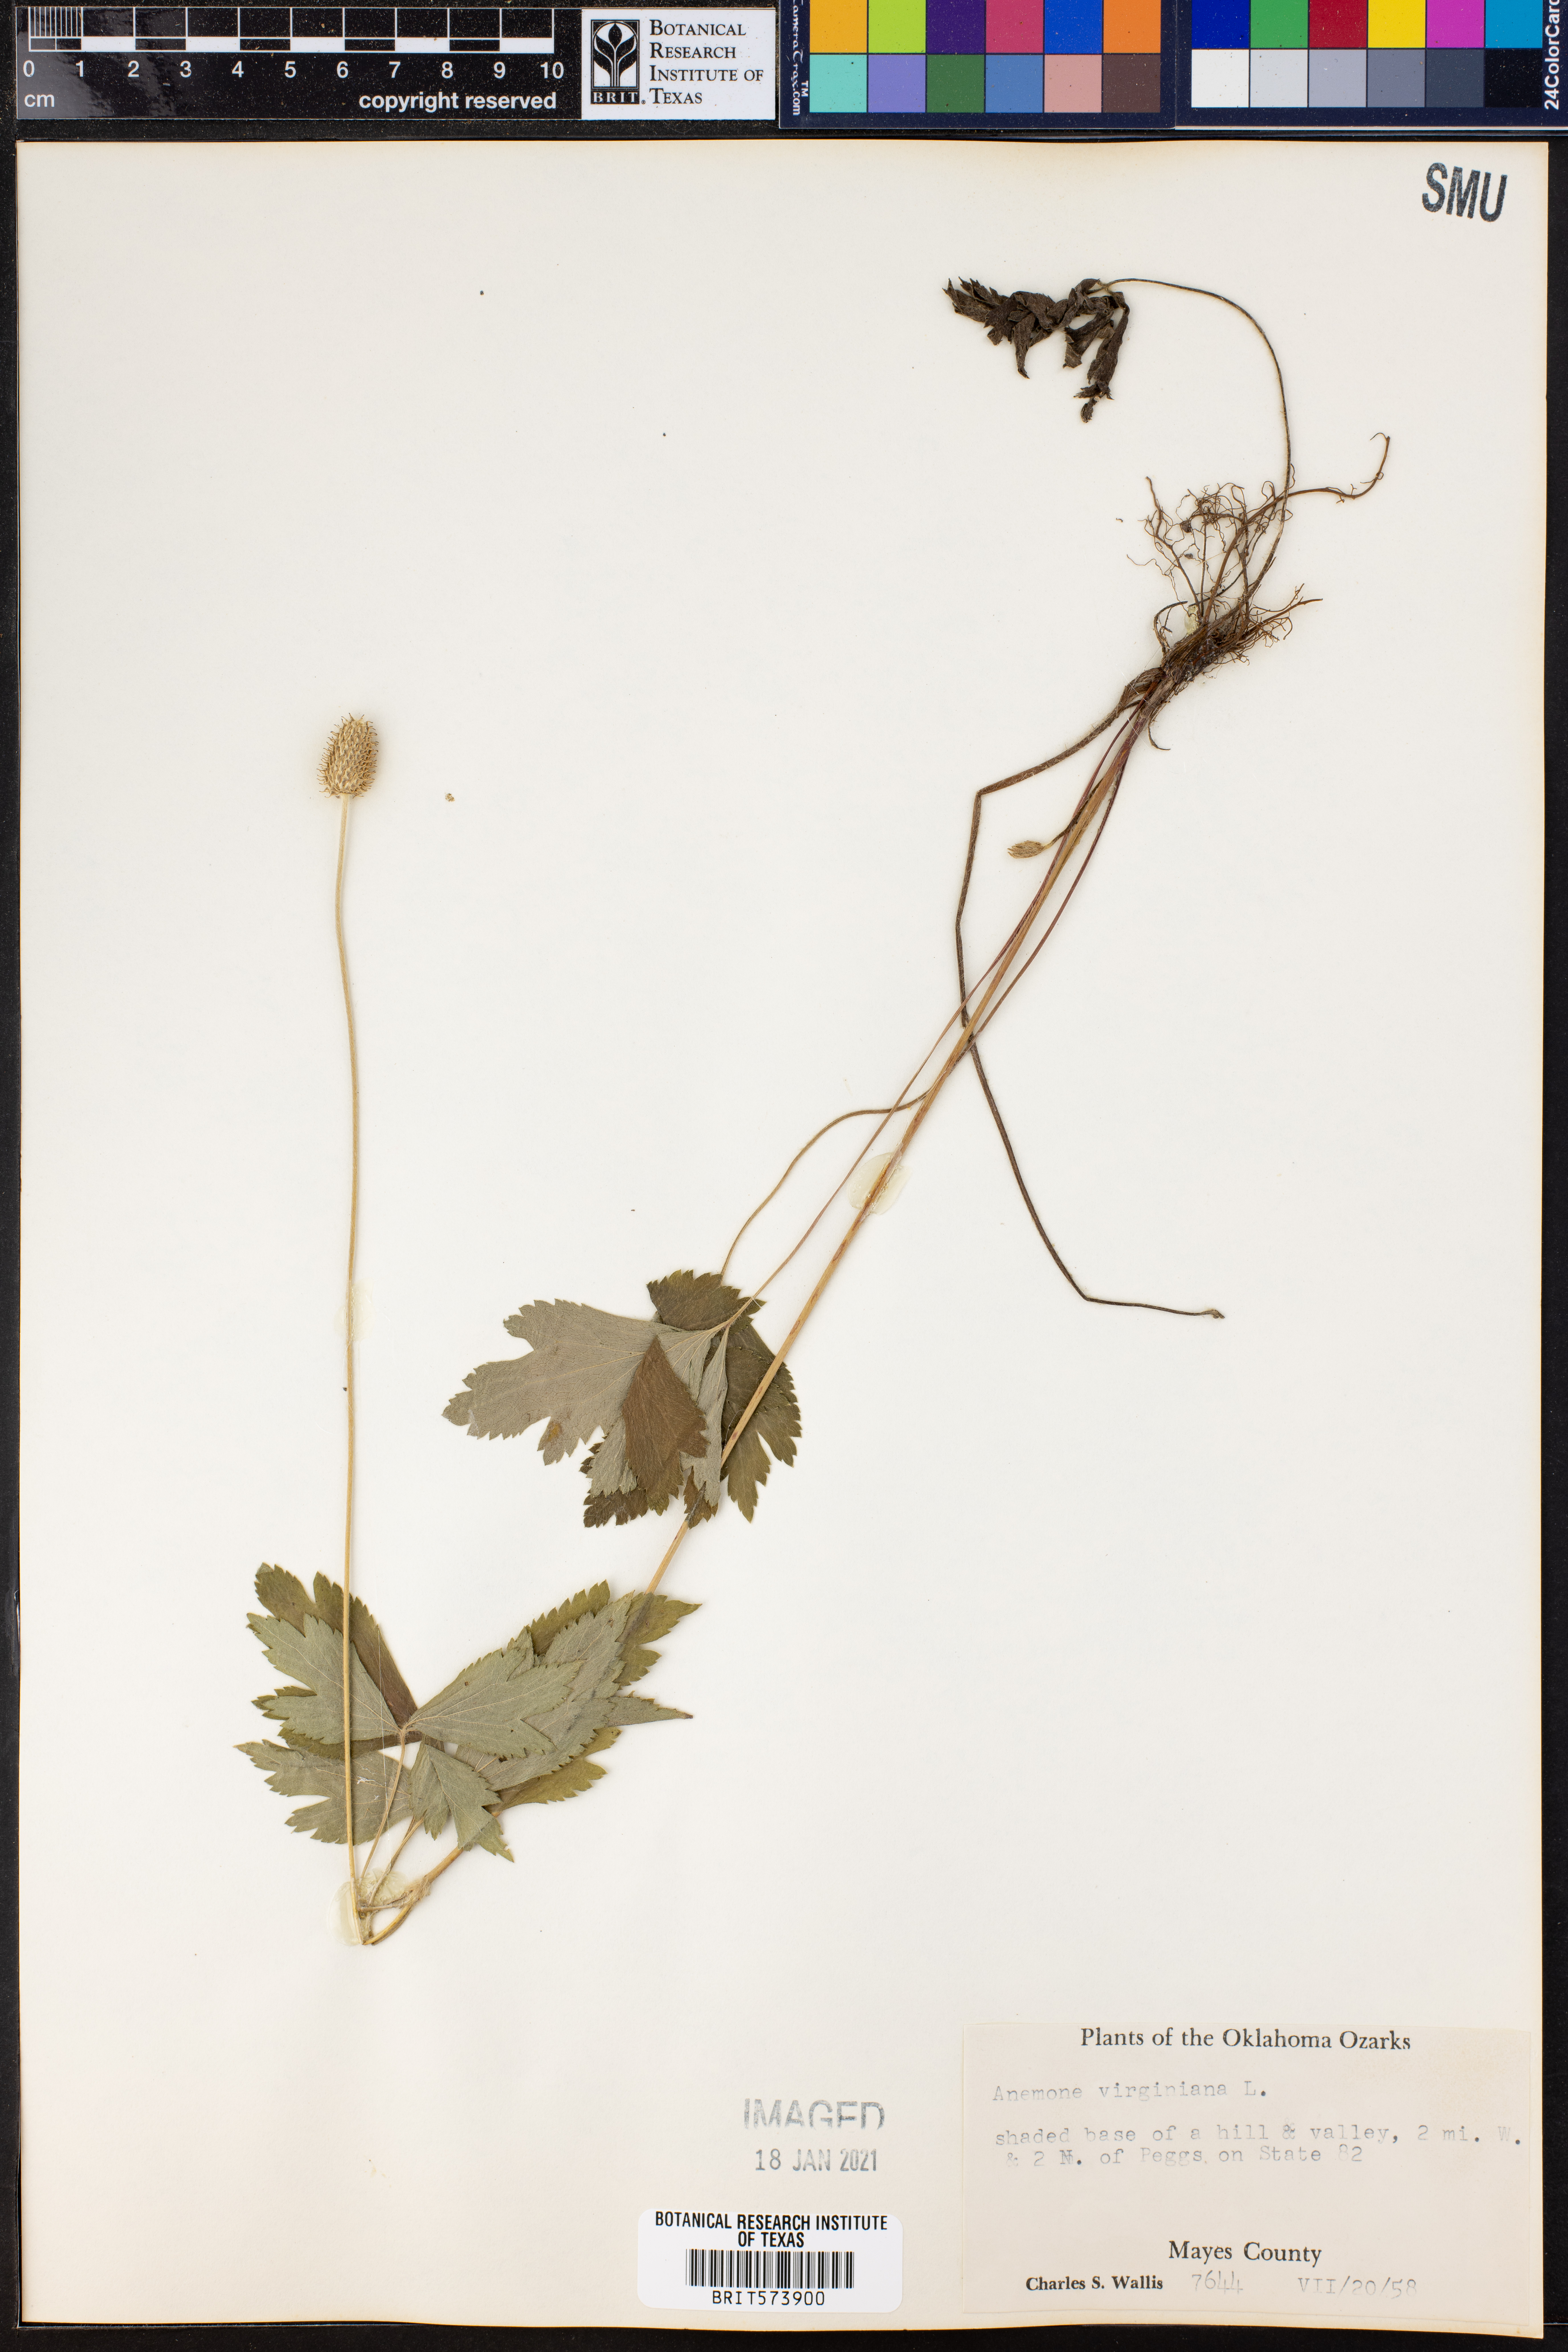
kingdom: Plantae
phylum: Tracheophyta
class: Magnoliopsida
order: Ranunculales
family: Ranunculaceae
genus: Anemone
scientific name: Anemone virginiana
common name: Tall anemone
